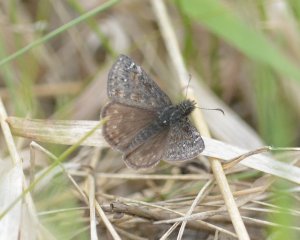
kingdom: Animalia
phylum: Arthropoda
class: Insecta
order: Lepidoptera
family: Hesperiidae
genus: Gesta
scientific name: Gesta
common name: Persius Duskywing
